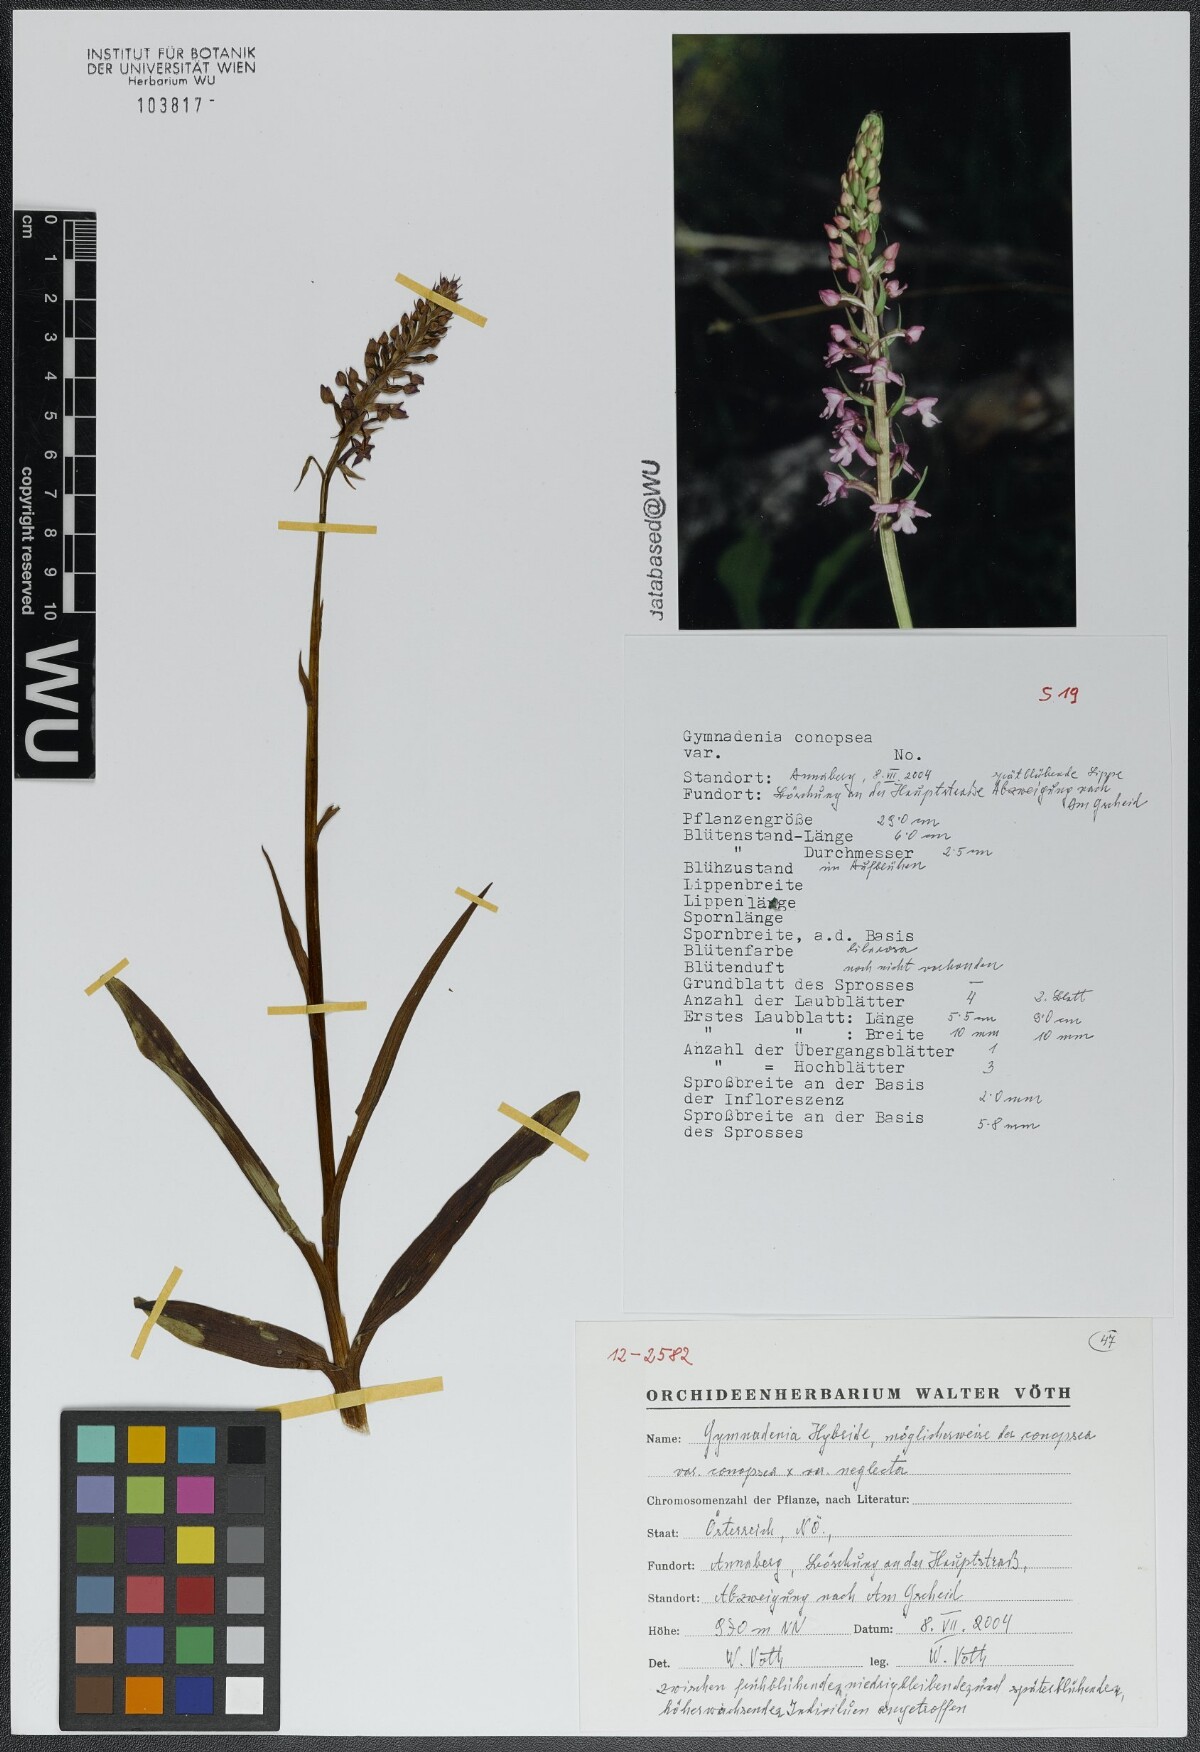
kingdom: Plantae
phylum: Tracheophyta
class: Liliopsida
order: Asparagales
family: Orchidaceae
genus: Gymnadenia
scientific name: Gymnadenia conopsea
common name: Fragrant orchid
